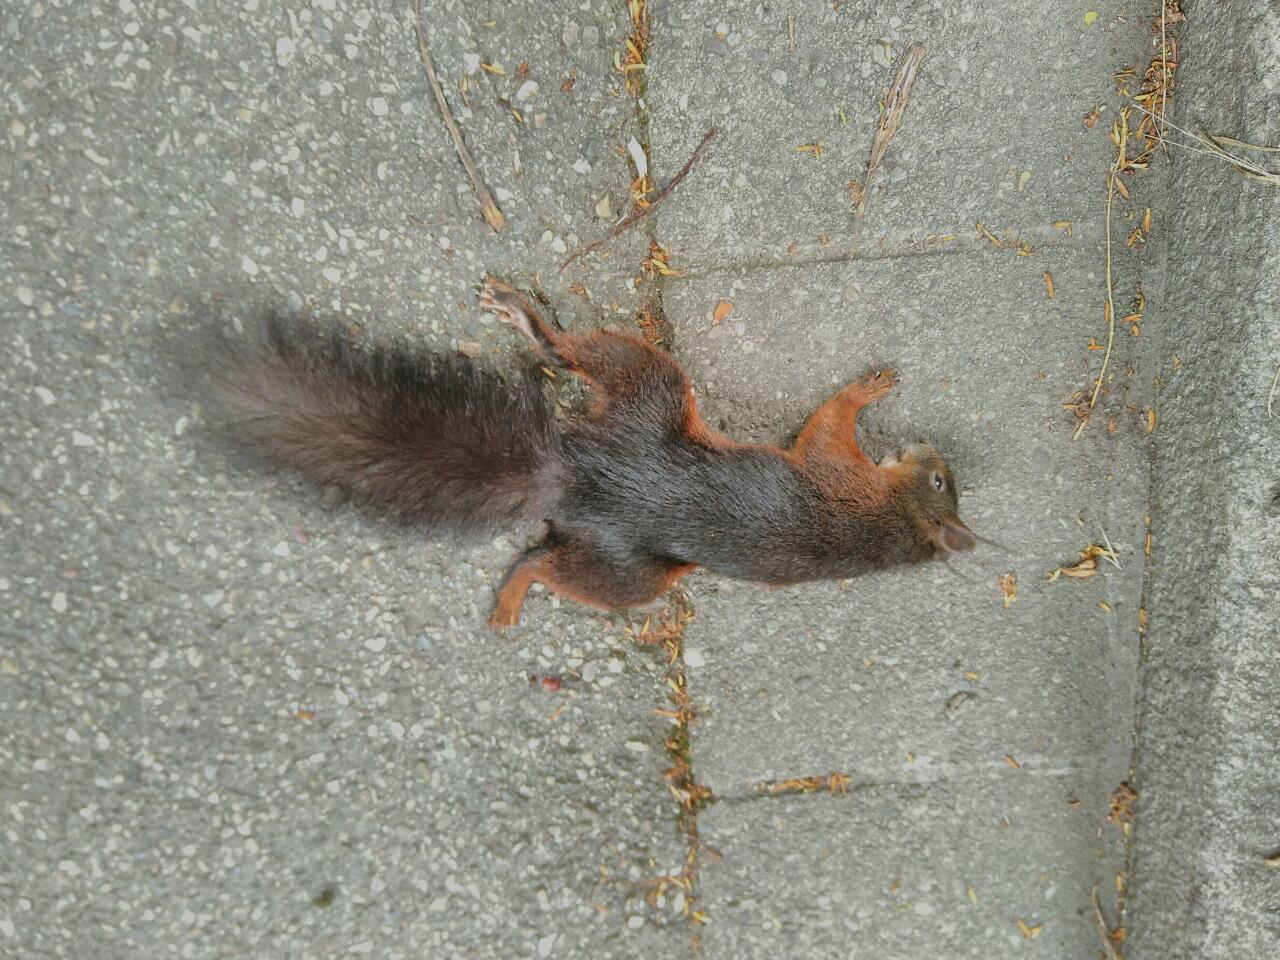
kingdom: Animalia
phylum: Chordata
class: Mammalia
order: Rodentia
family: Sciuridae
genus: Sciurus
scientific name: Sciurus vulgaris
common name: Eurasian red squirrel
